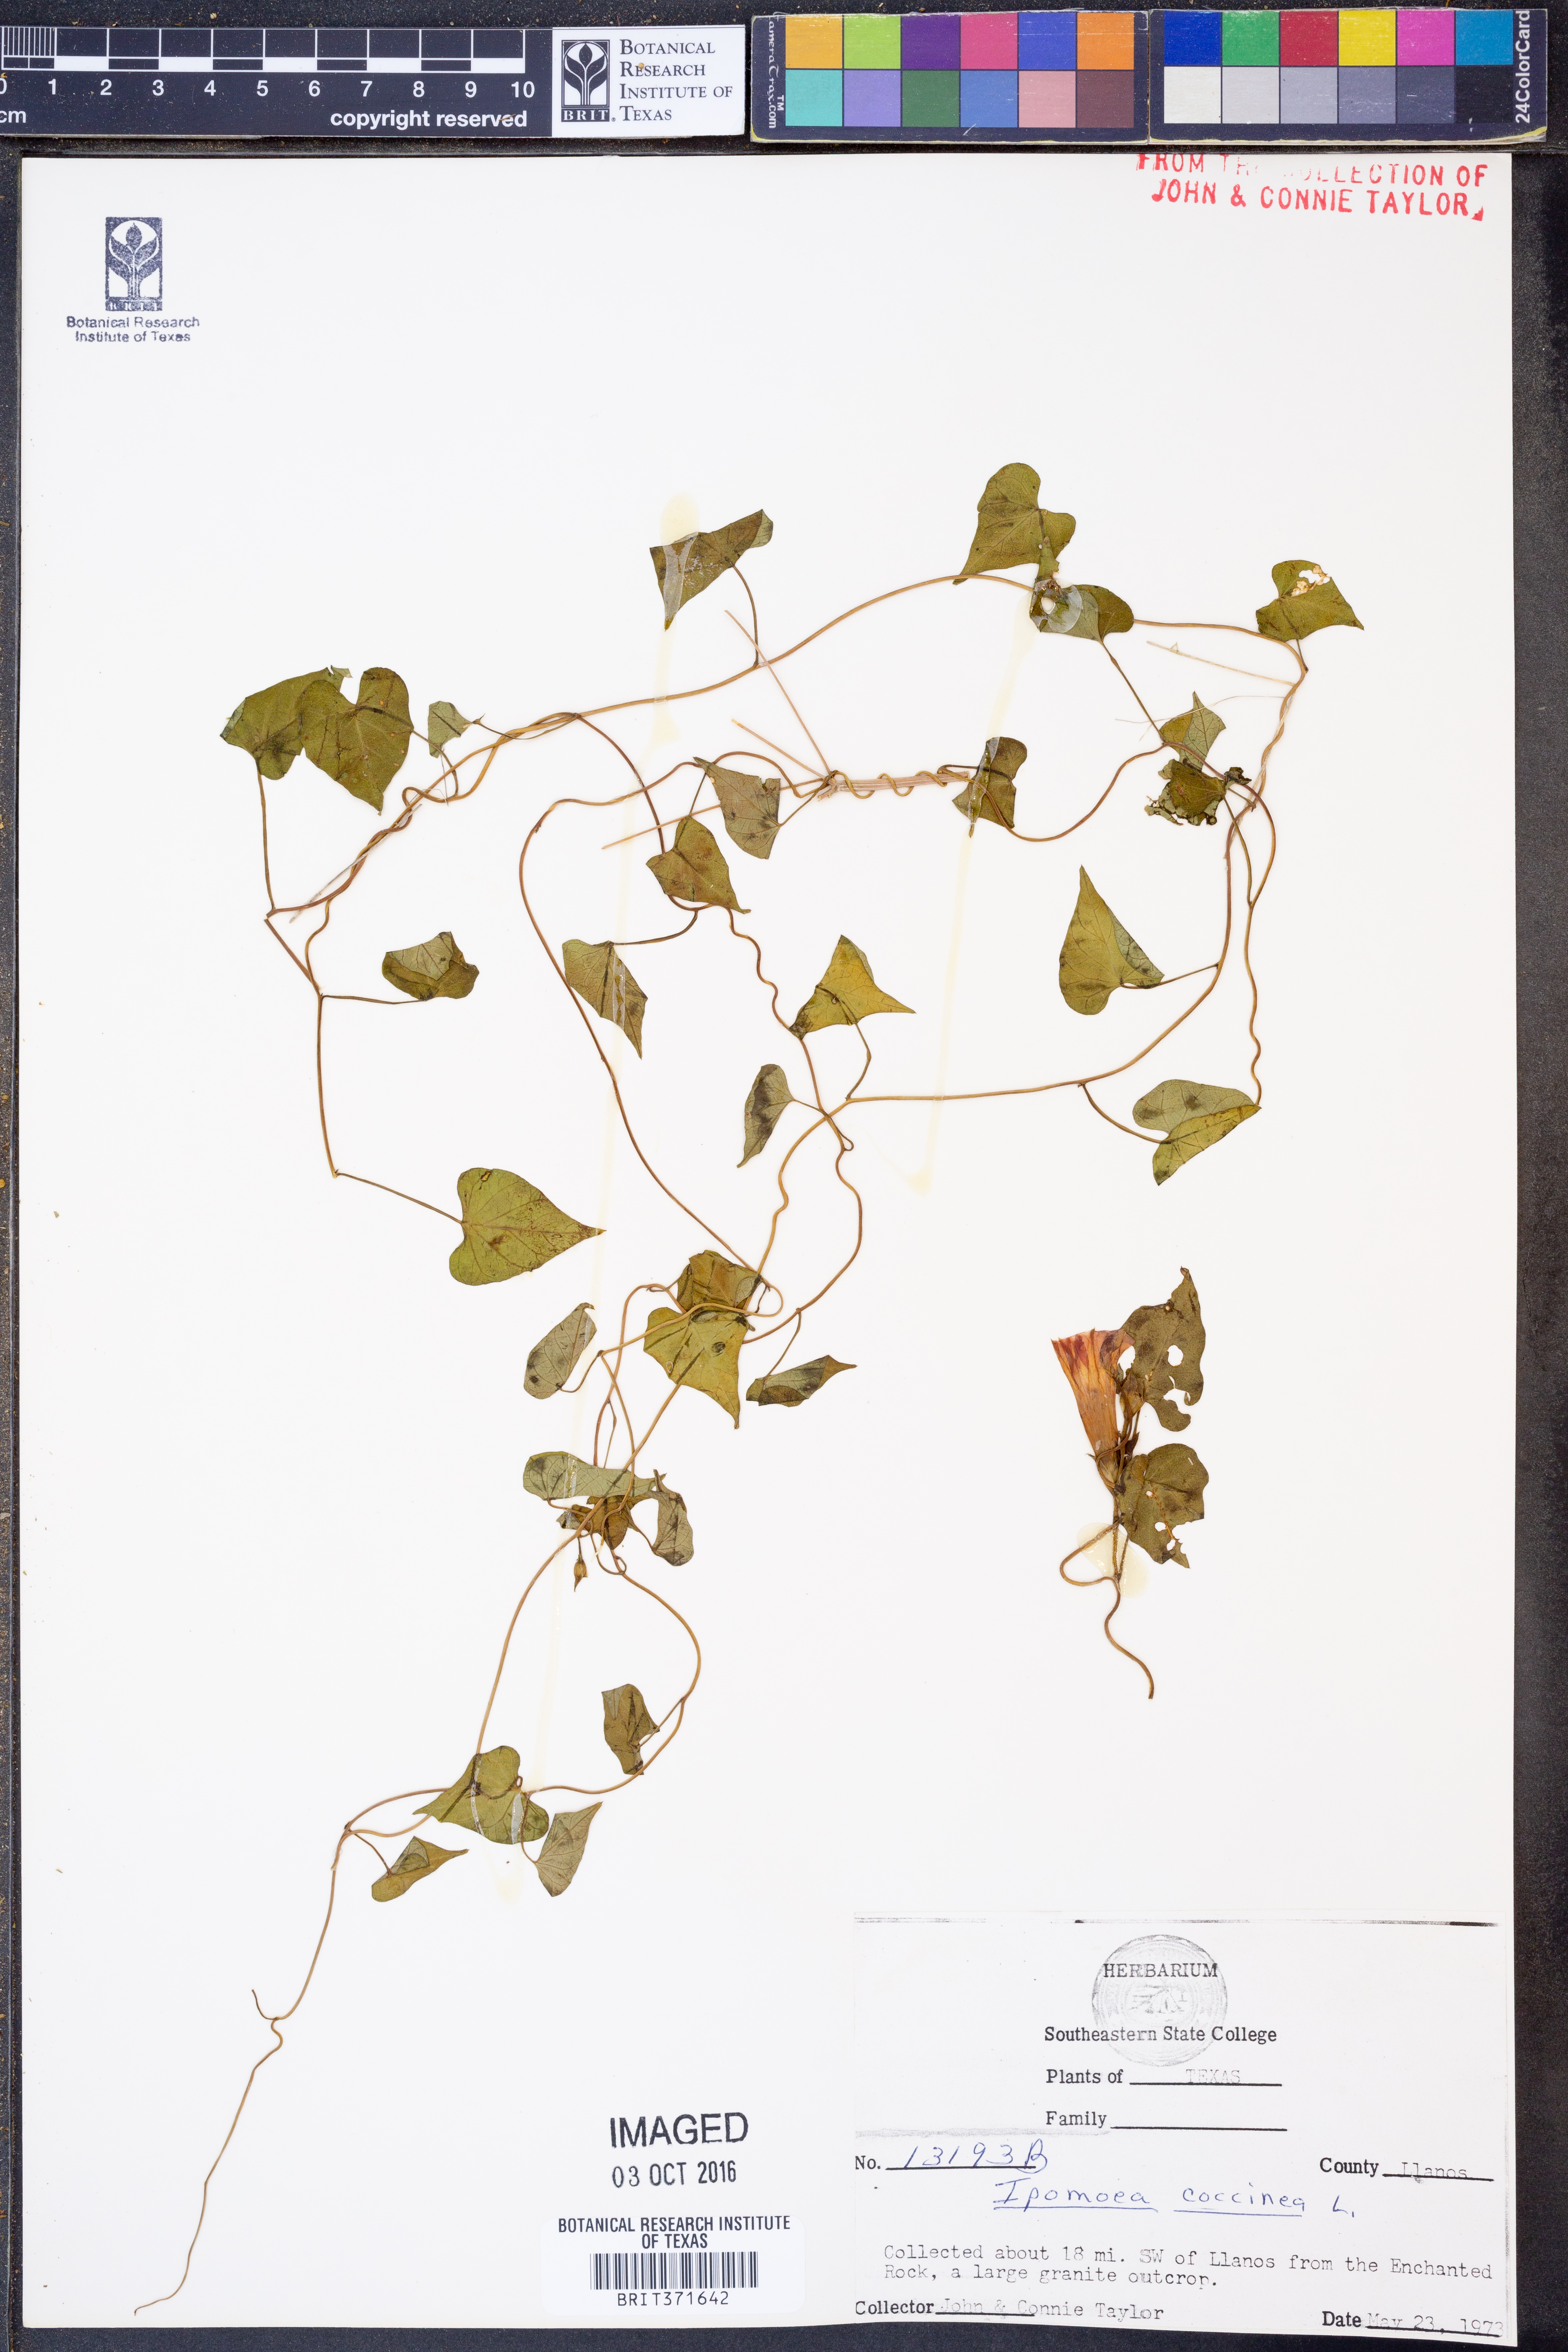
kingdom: Plantae
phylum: Tracheophyta
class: Magnoliopsida
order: Solanales
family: Convolvulaceae
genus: Ipomoea
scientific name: Ipomoea coccinea
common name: Red morning-glory
